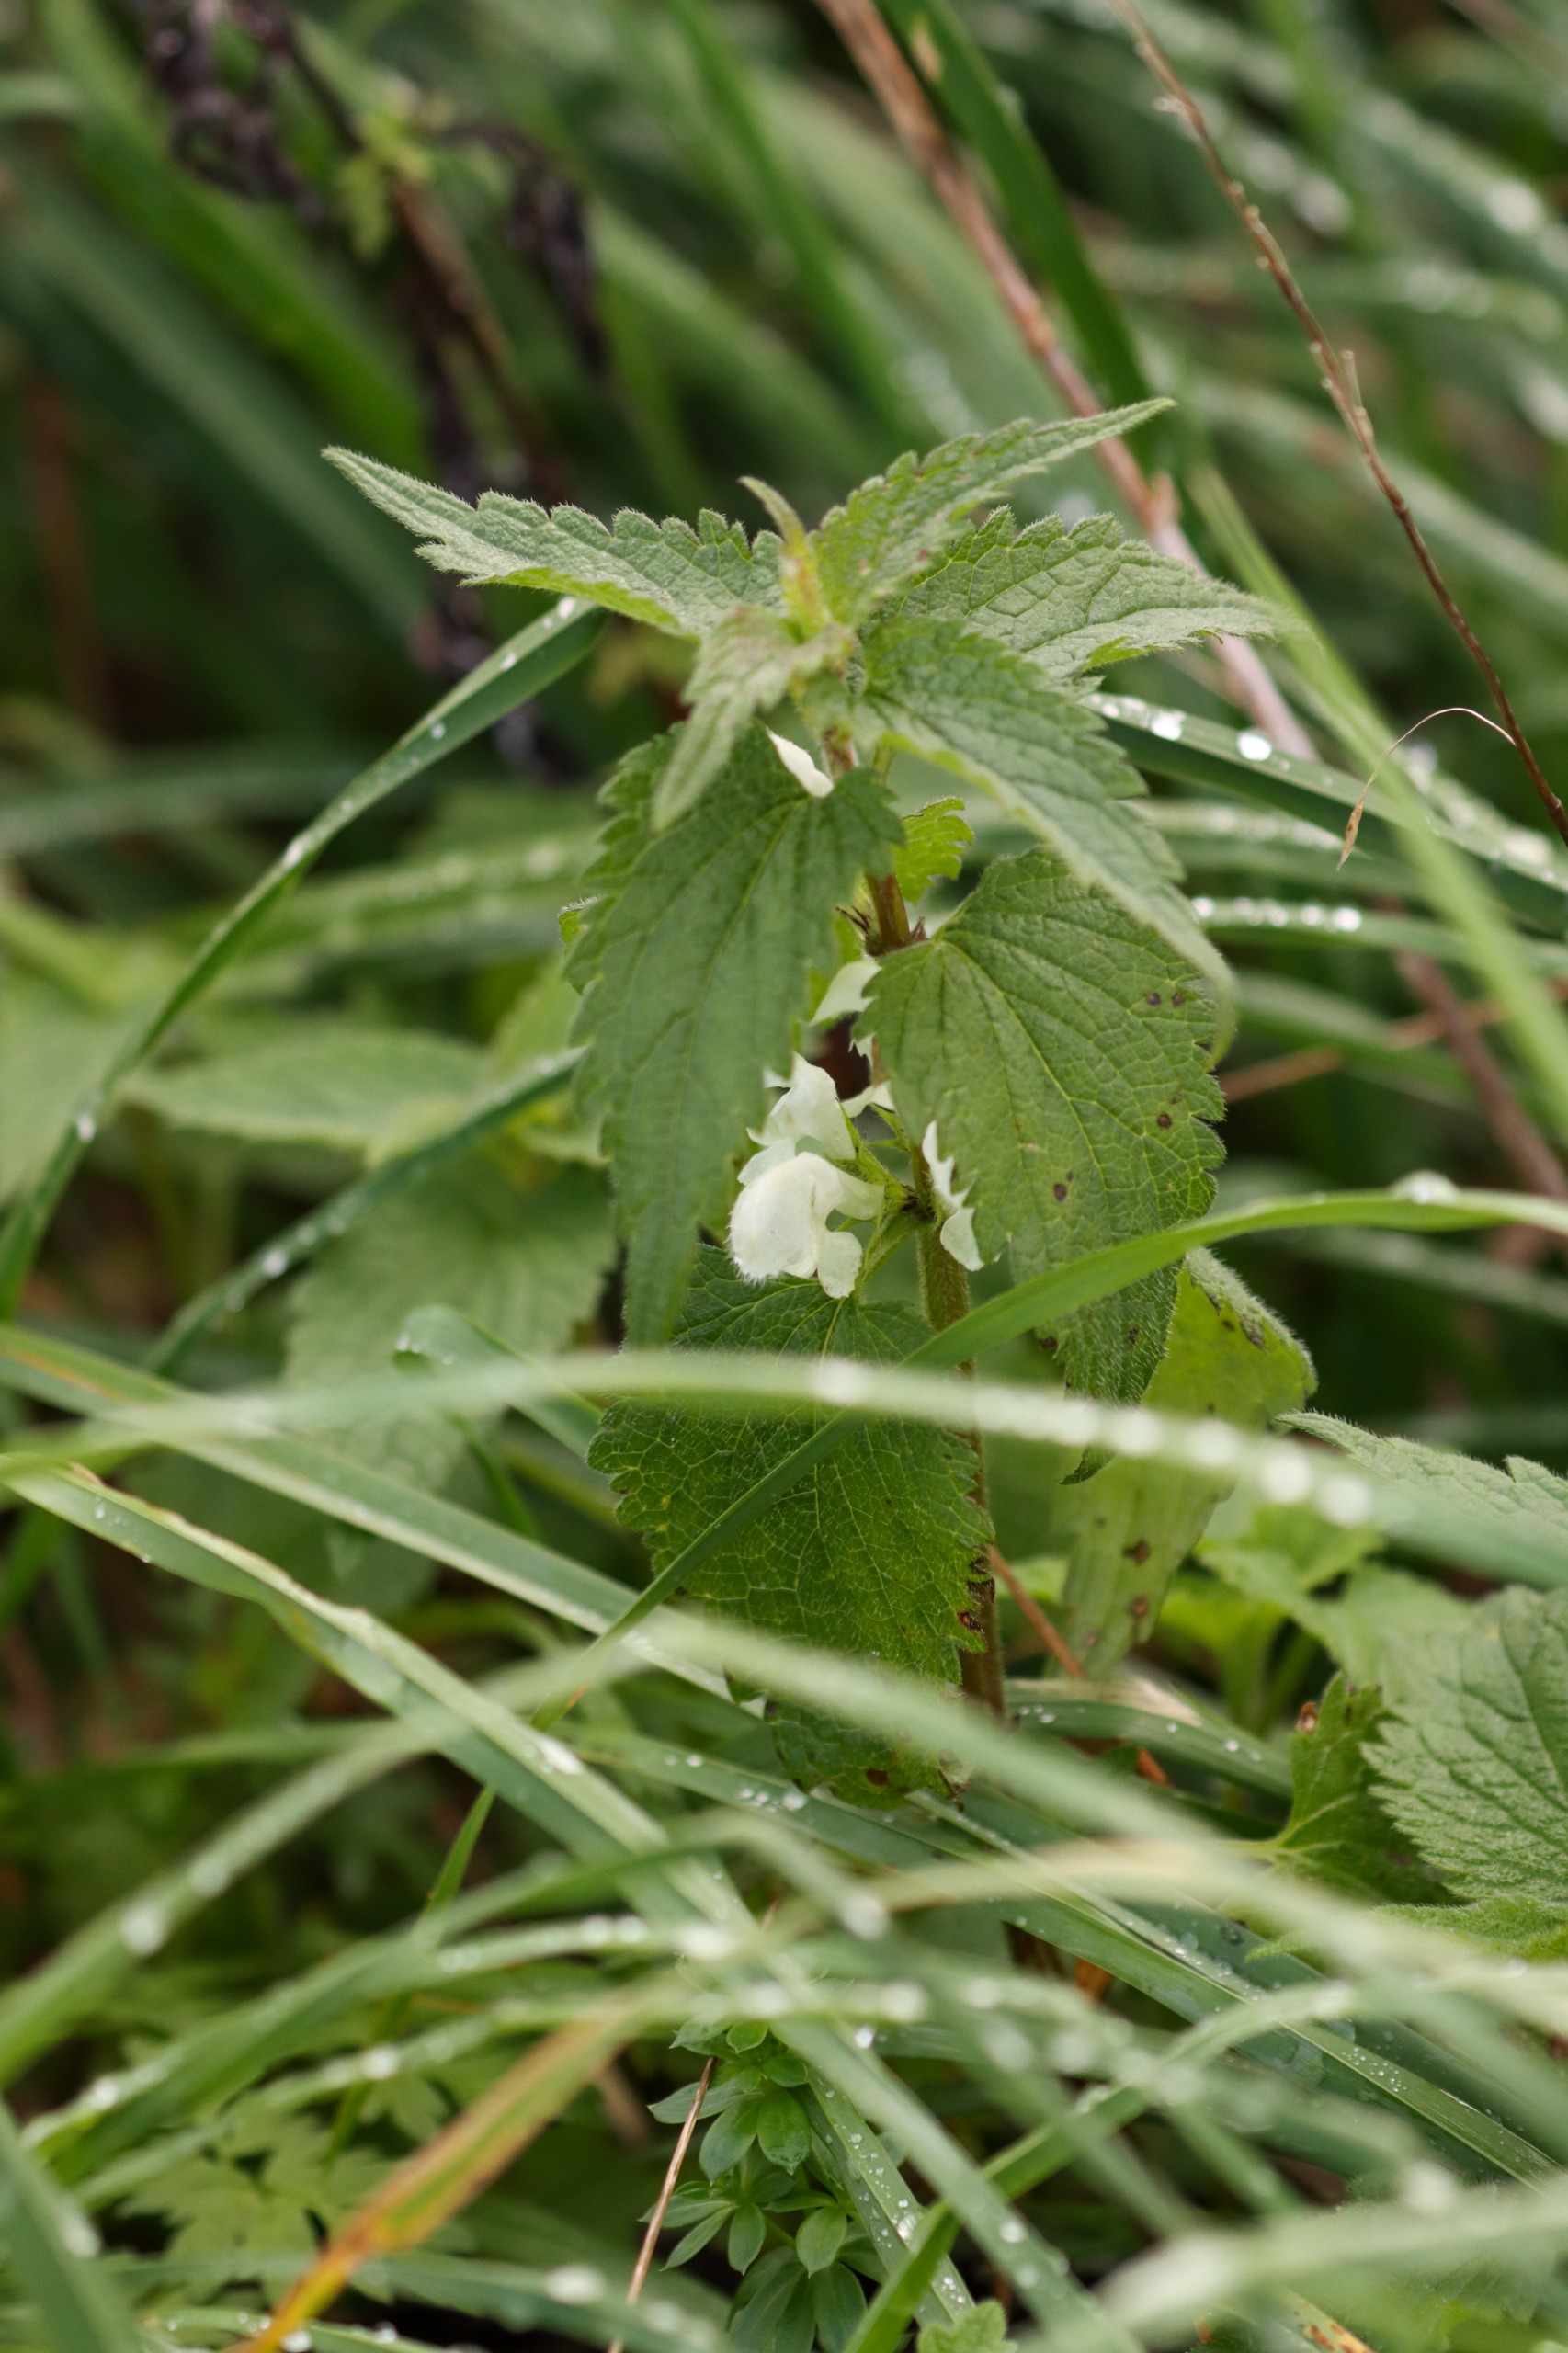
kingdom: Plantae
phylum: Tracheophyta
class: Magnoliopsida
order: Lamiales
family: Lamiaceae
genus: Lamium
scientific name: Lamium album
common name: Døvnælde
